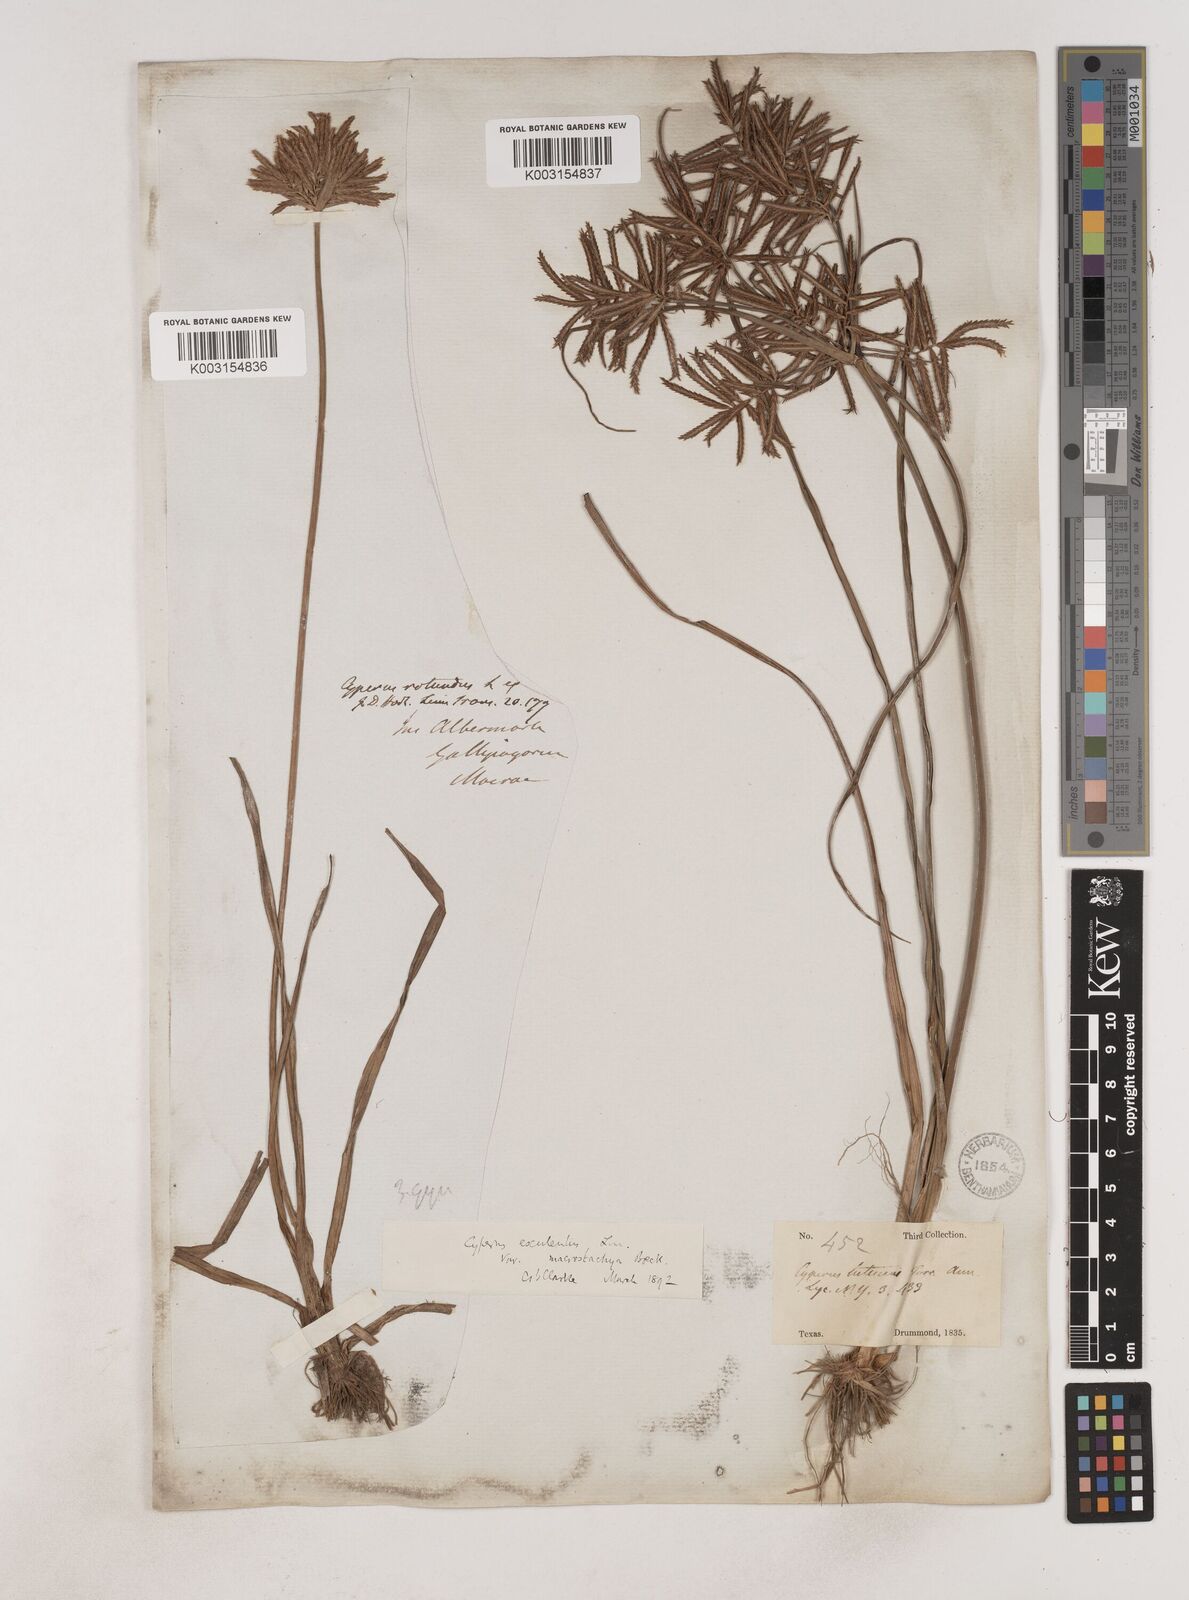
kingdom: Plantae
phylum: Tracheophyta
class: Liliopsida
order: Poales
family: Cyperaceae
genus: Cyperus
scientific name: Cyperus esculentus
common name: Yellow nutsedge
